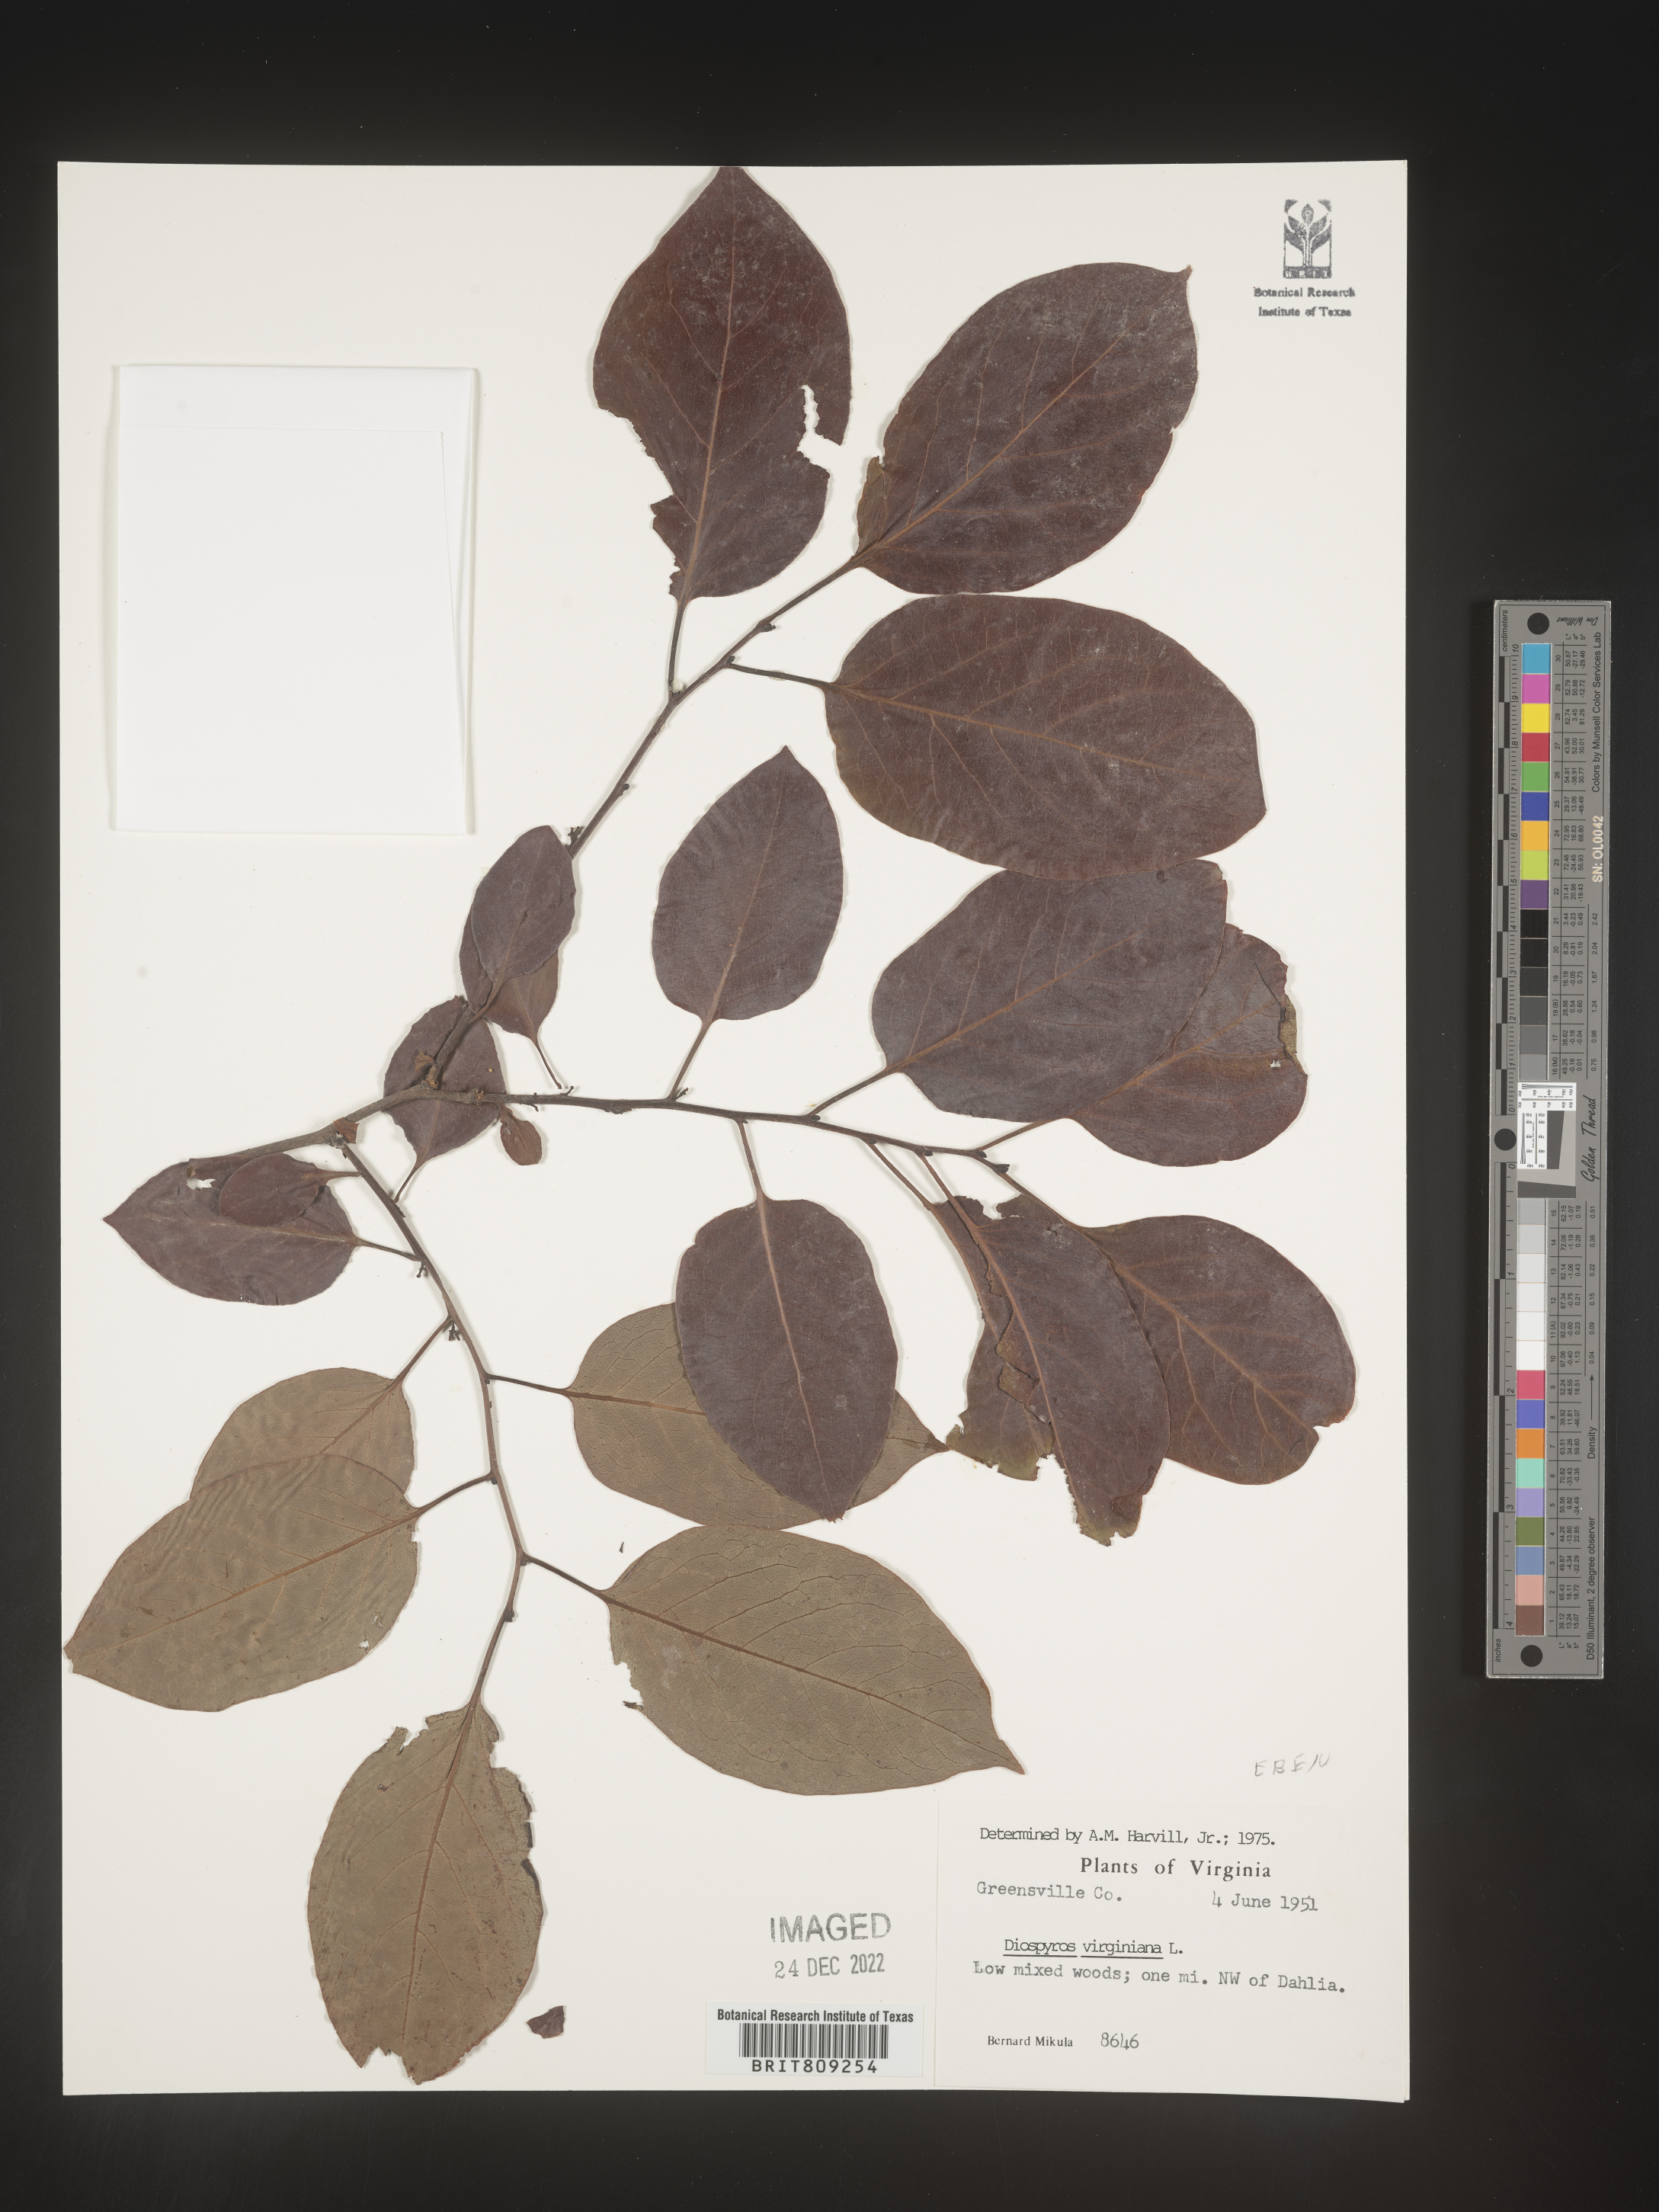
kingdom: Plantae
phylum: Tracheophyta
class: Magnoliopsida
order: Ericales
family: Ebenaceae
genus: Diospyros
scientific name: Diospyros virginiana
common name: Persimmon
